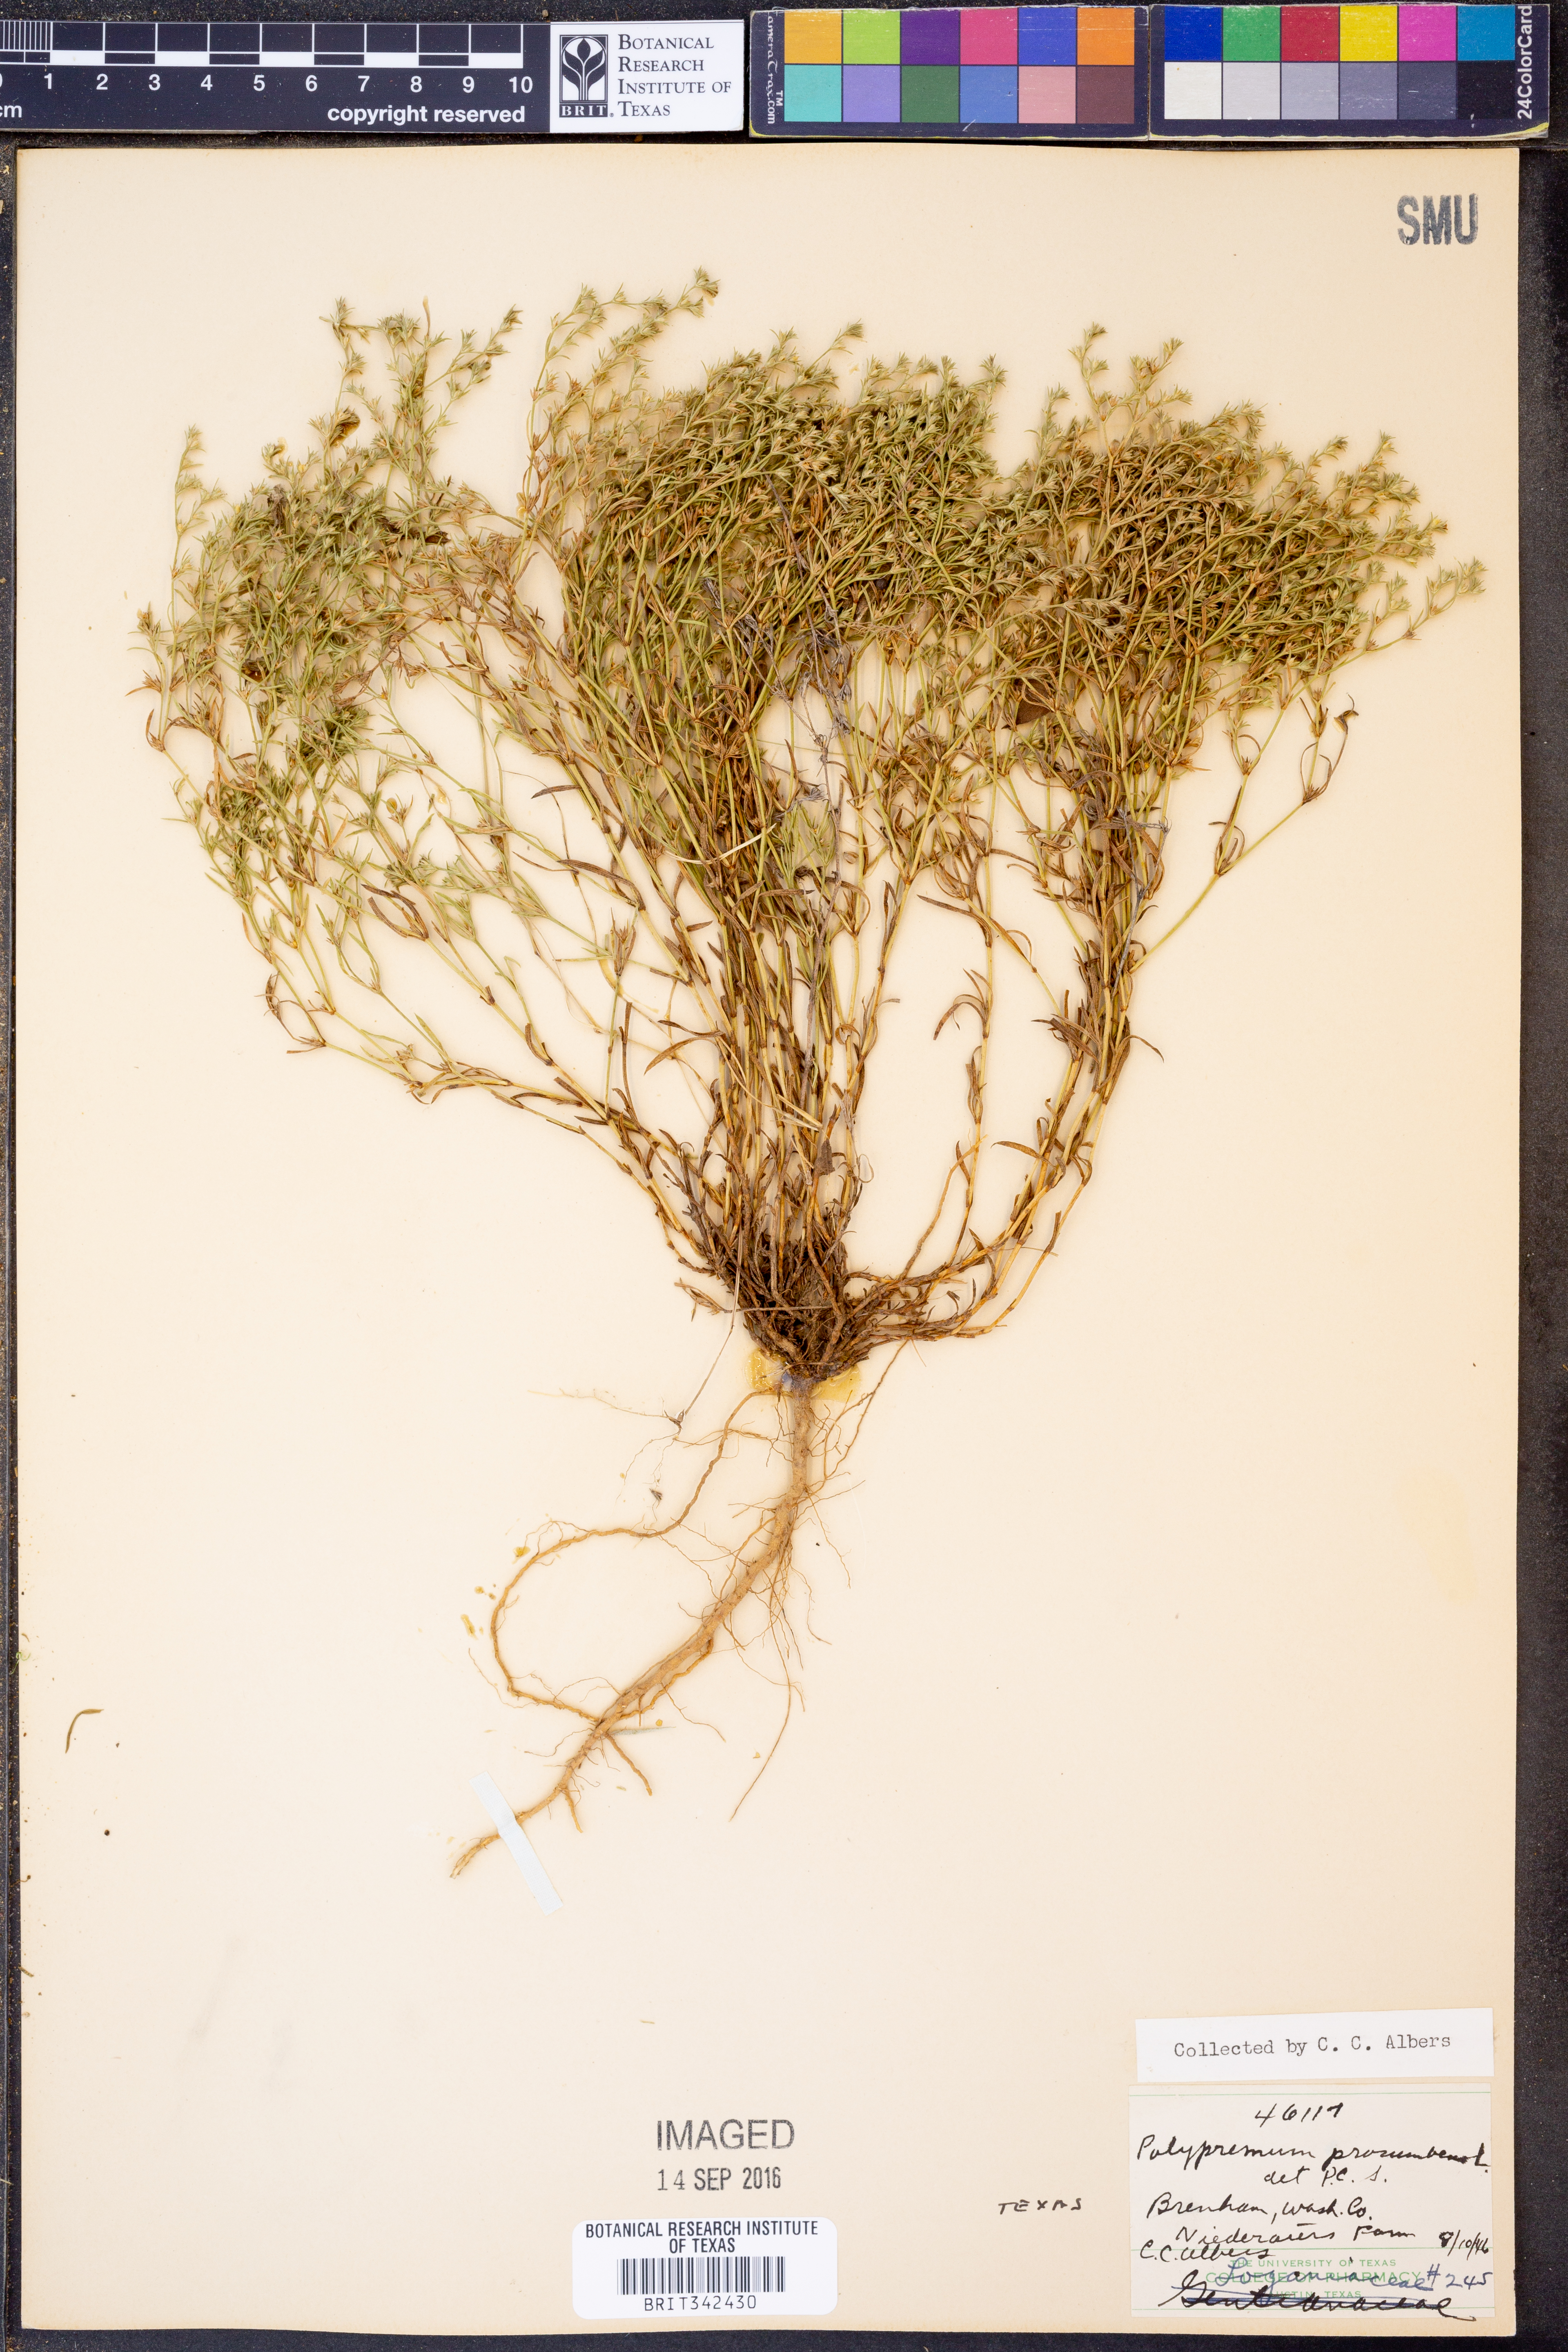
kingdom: Plantae
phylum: Tracheophyta
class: Magnoliopsida
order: Lamiales
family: Tetrachondraceae
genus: Polypremum
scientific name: Polypremum procumbens
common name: Juniper-leaf
